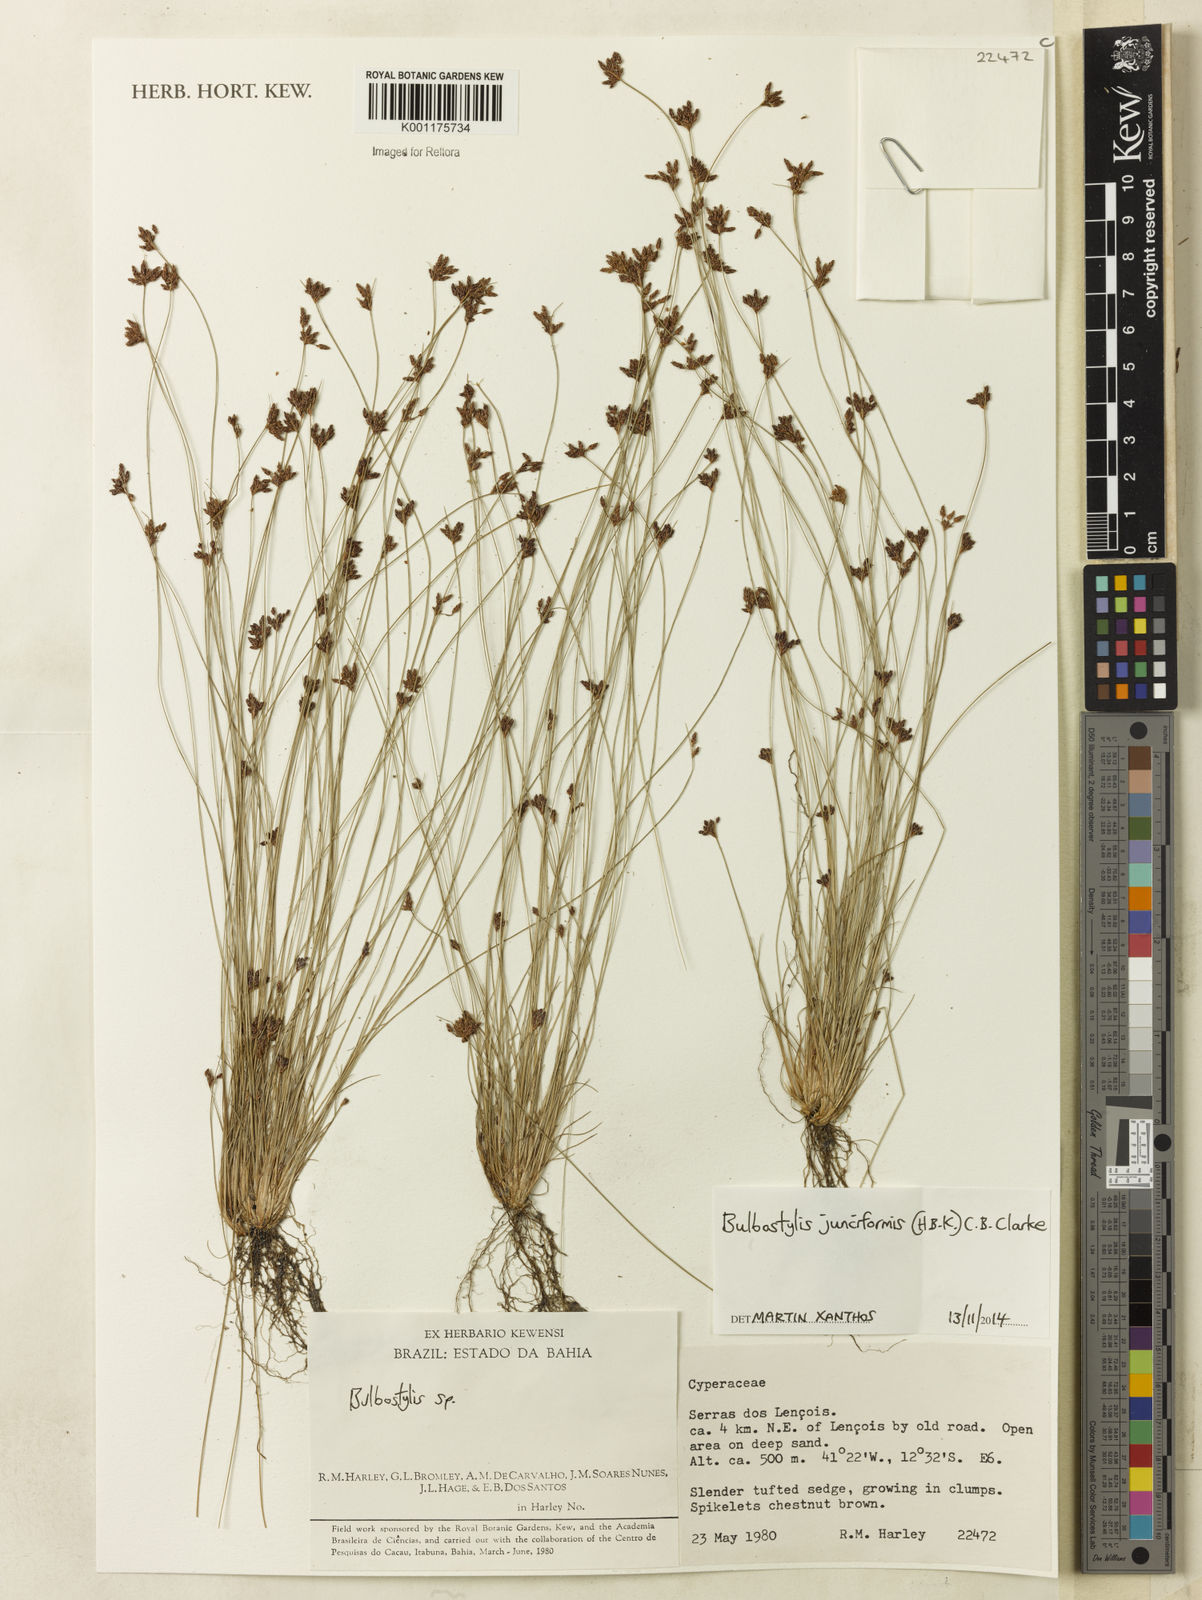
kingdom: Plantae
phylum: Tracheophyta
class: Liliopsida
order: Poales
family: Cyperaceae
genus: Bulbostylis
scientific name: Bulbostylis junciformis
